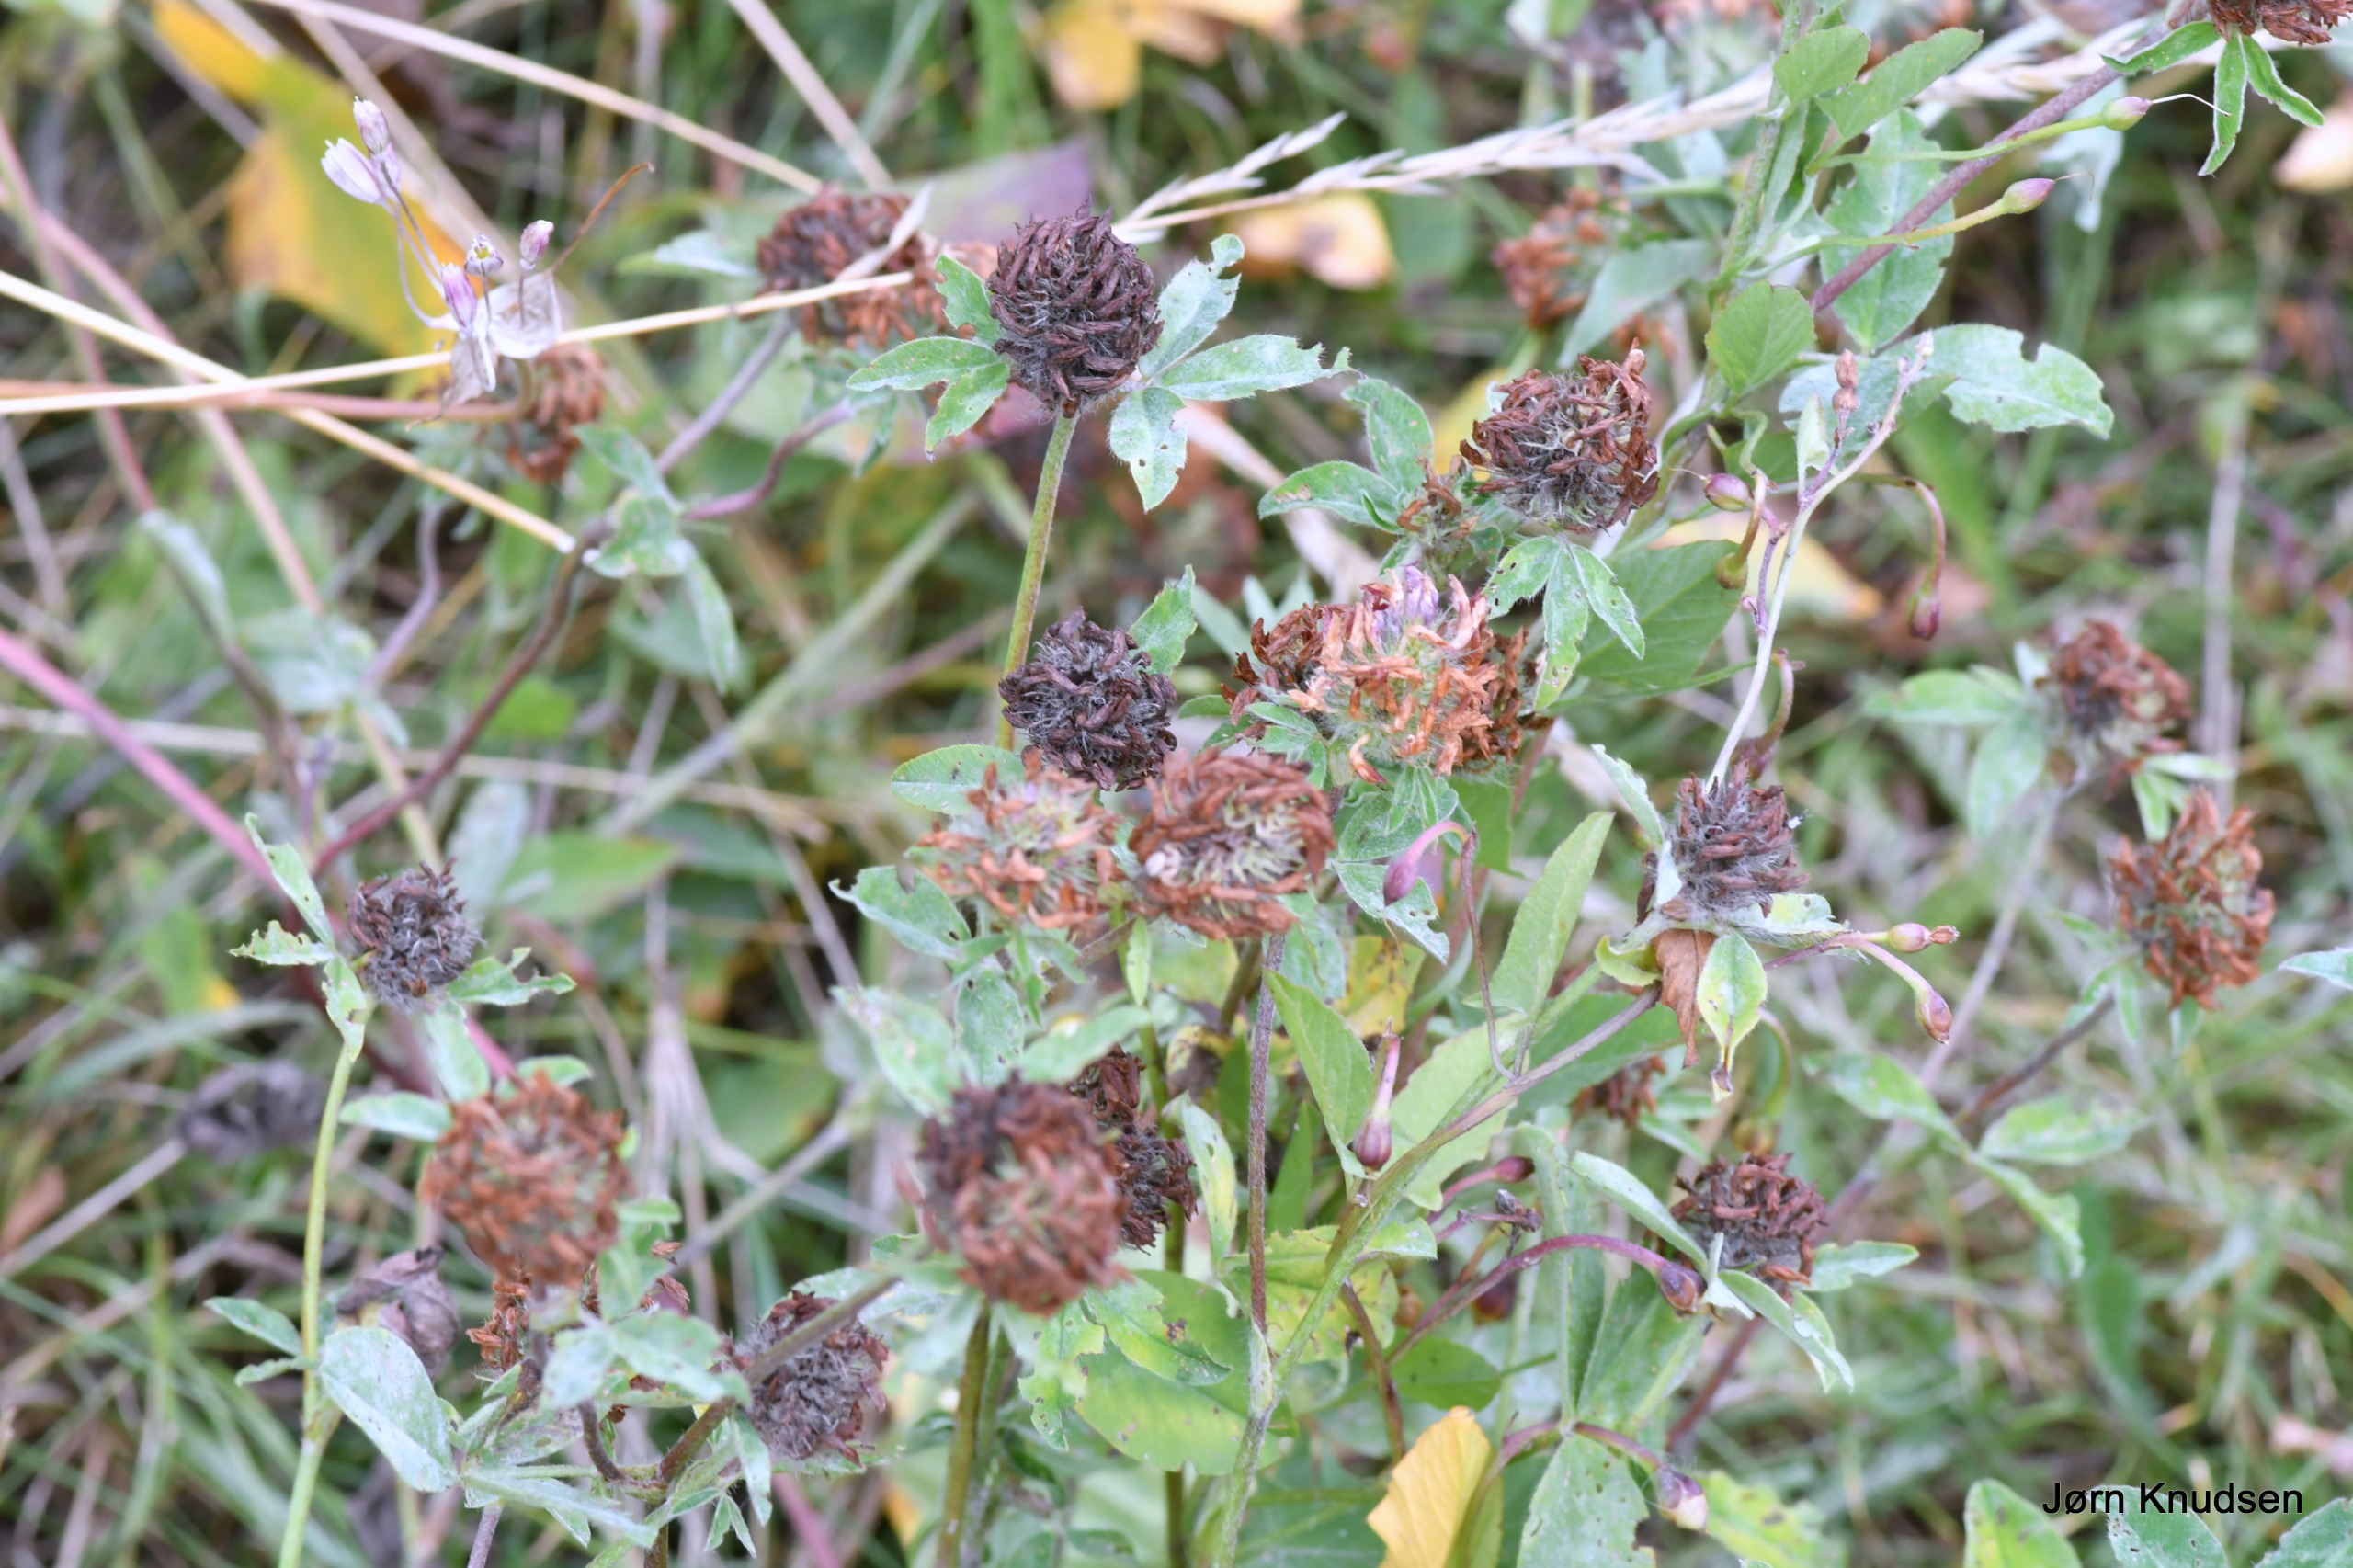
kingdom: Plantae
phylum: Tracheophyta
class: Magnoliopsida
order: Fabales
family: Fabaceae
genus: Trifolium
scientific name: Trifolium pratense
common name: Rød-kløver
